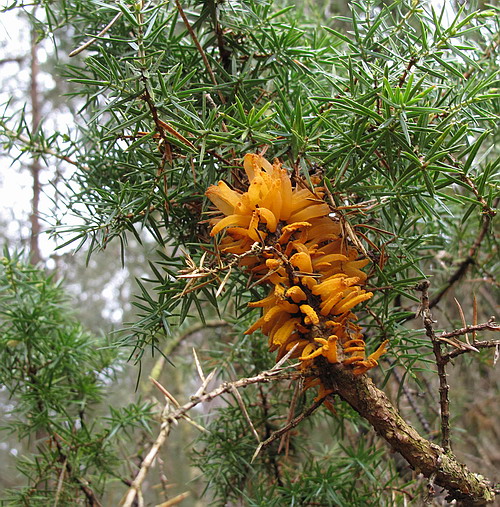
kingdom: Fungi
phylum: Basidiomycota
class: Pucciniomycetes
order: Pucciniales
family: Gymnosporangiaceae
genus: Gymnosporangium
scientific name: Gymnosporangium clavariiforme
